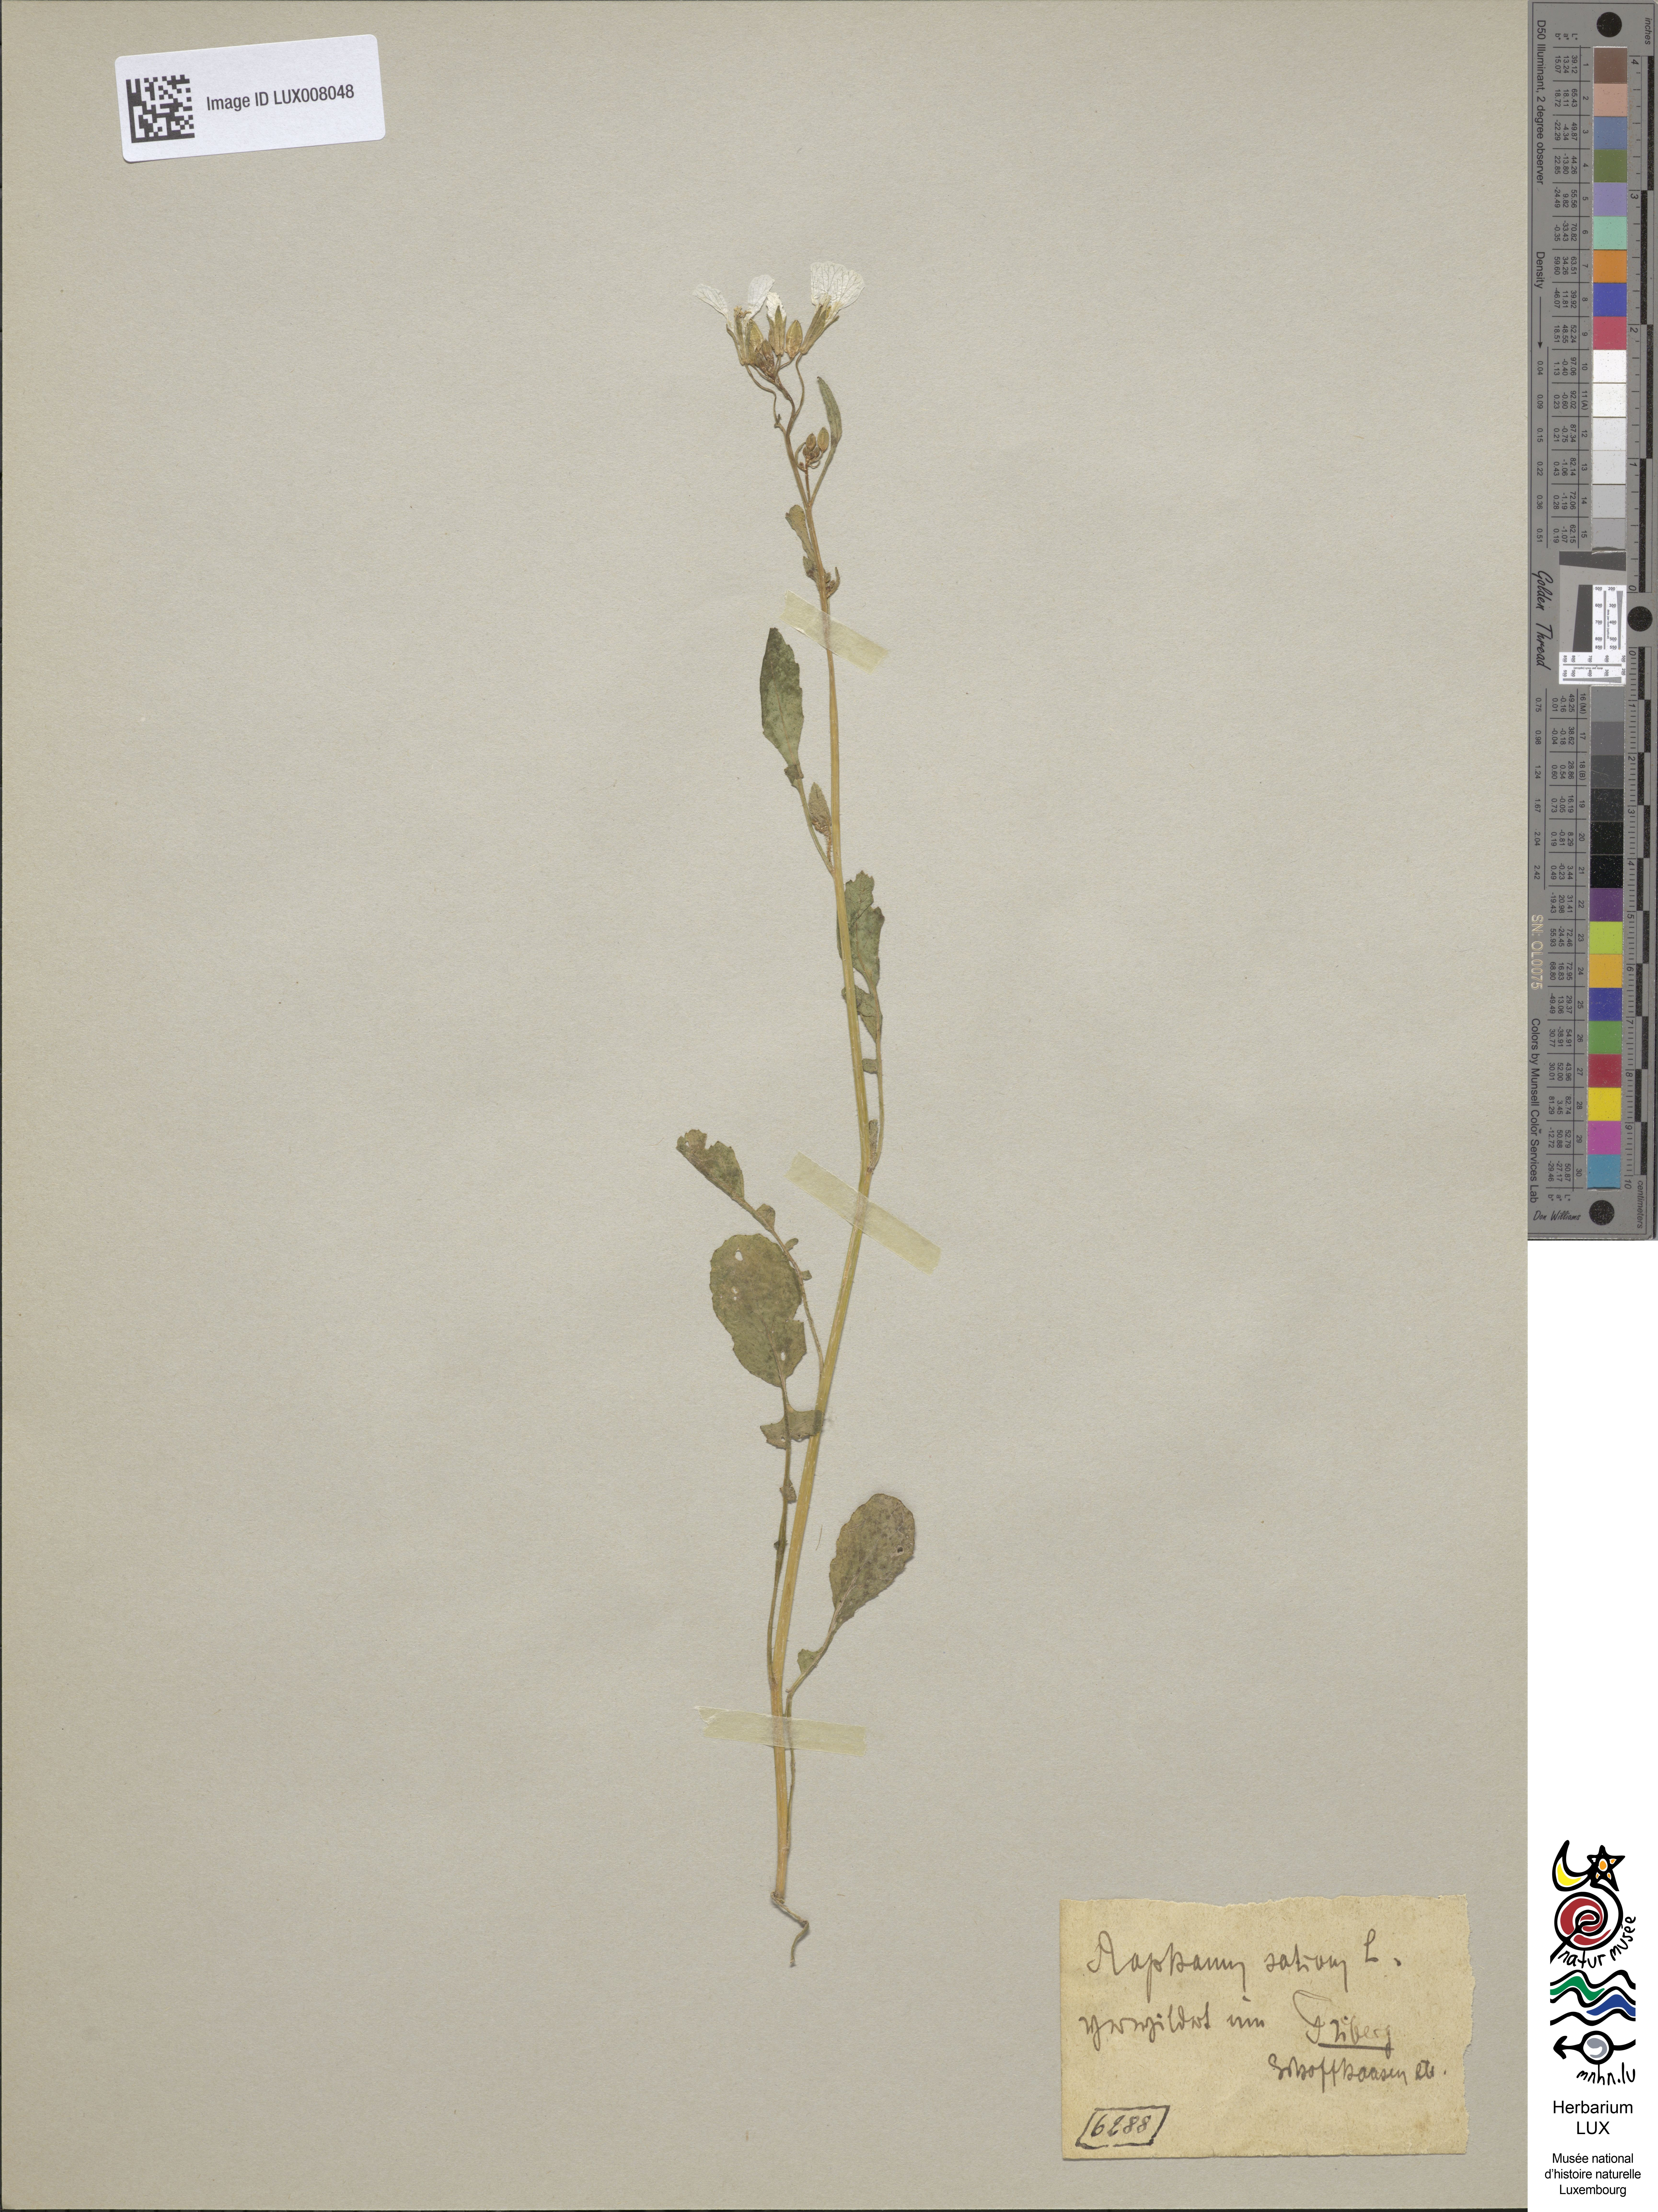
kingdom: Plantae
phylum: Tracheophyta
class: Magnoliopsida
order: Brassicales
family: Brassicaceae
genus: Raphanus
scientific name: Raphanus raphanistrum
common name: Wild radish
